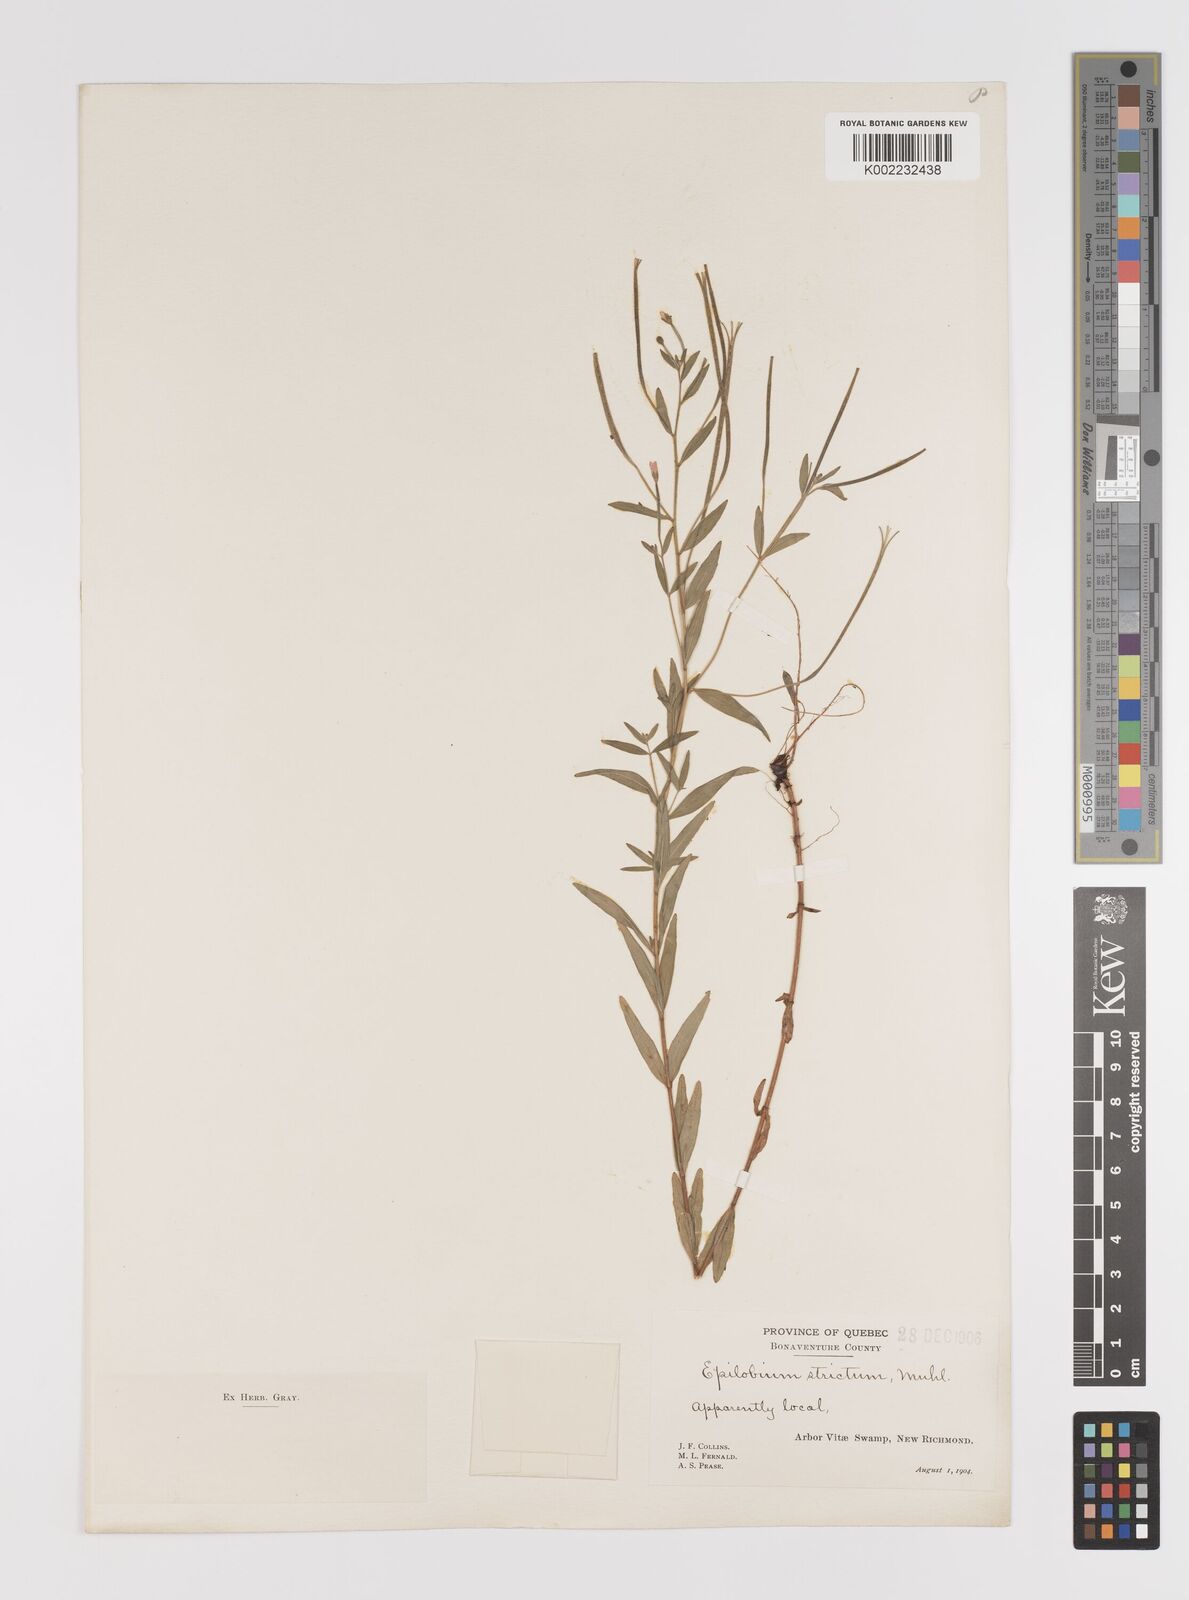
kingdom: Plantae
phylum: Tracheophyta
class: Magnoliopsida
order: Myrtales
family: Onagraceae
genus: Epilobium
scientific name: Epilobium densum
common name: Downy willowherb
